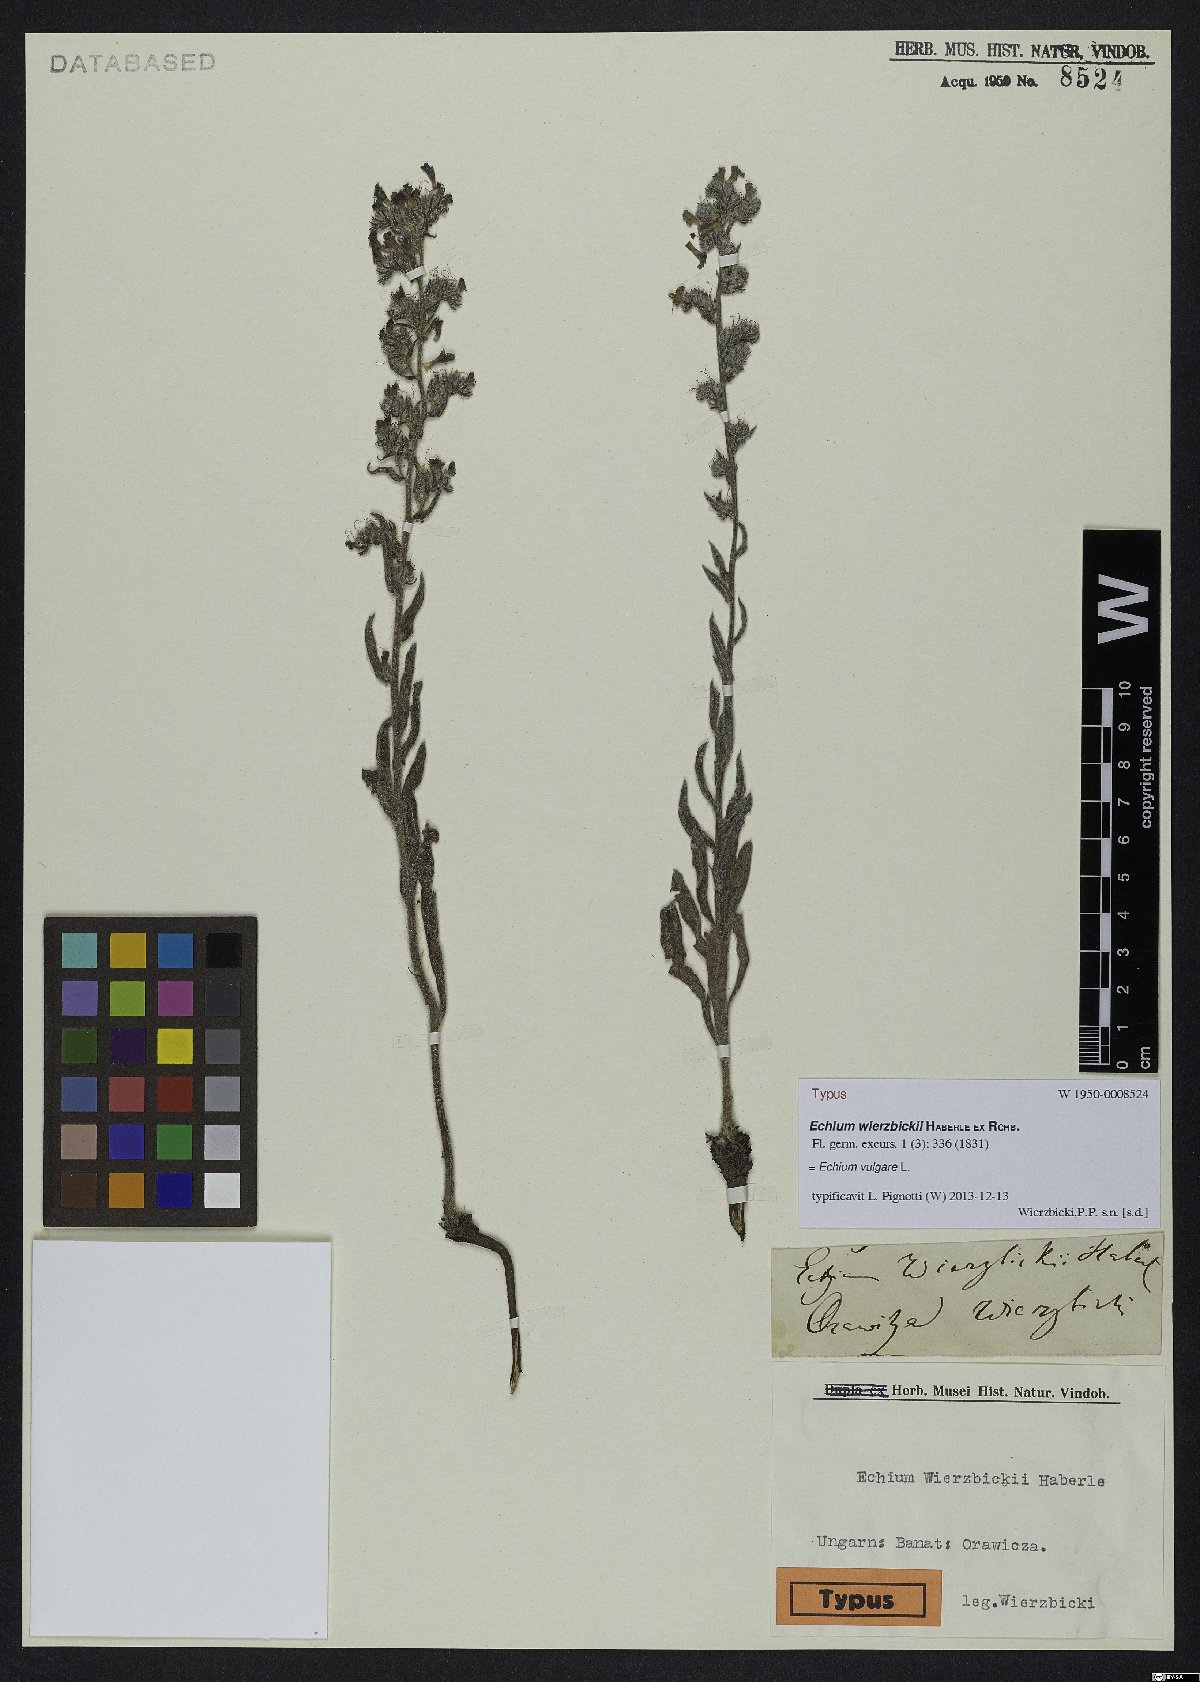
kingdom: Plantae
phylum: Tracheophyta
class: Magnoliopsida
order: Boraginales
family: Boraginaceae
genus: Echium
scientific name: Echium vulgare
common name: Common viper's bugloss
